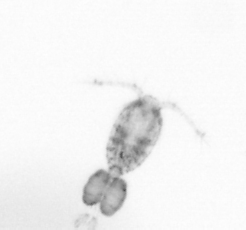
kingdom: Animalia
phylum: Arthropoda
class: Copepoda
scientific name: Copepoda
